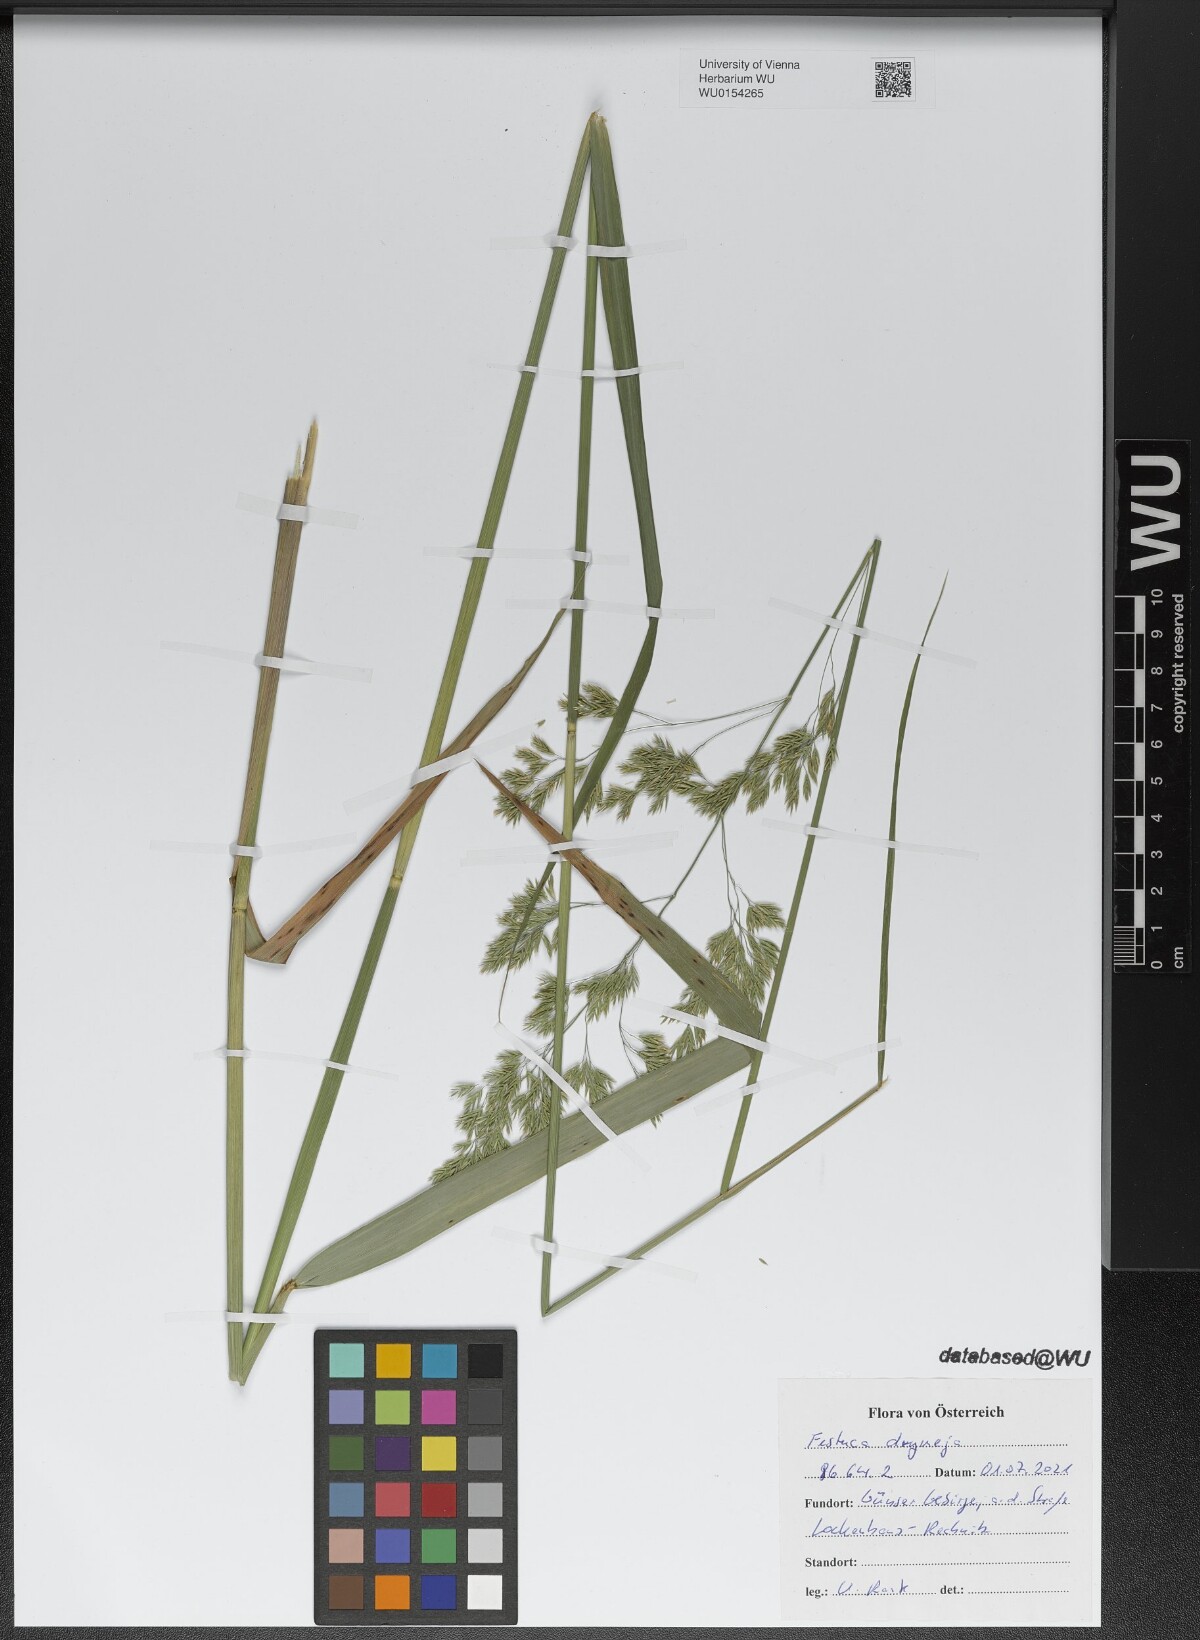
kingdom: Plantae
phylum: Tracheophyta
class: Liliopsida
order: Poales
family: Poaceae
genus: Festuca
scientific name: Festuca drymeja
